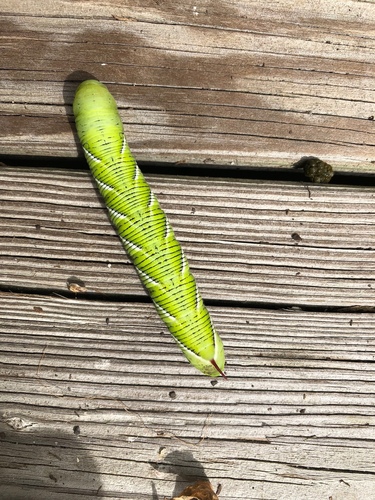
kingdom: Animalia
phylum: Arthropoda
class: Insecta
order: Lepidoptera
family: Sphingidae
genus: Manduca
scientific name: Manduca sexta
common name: Carolina sphinx
